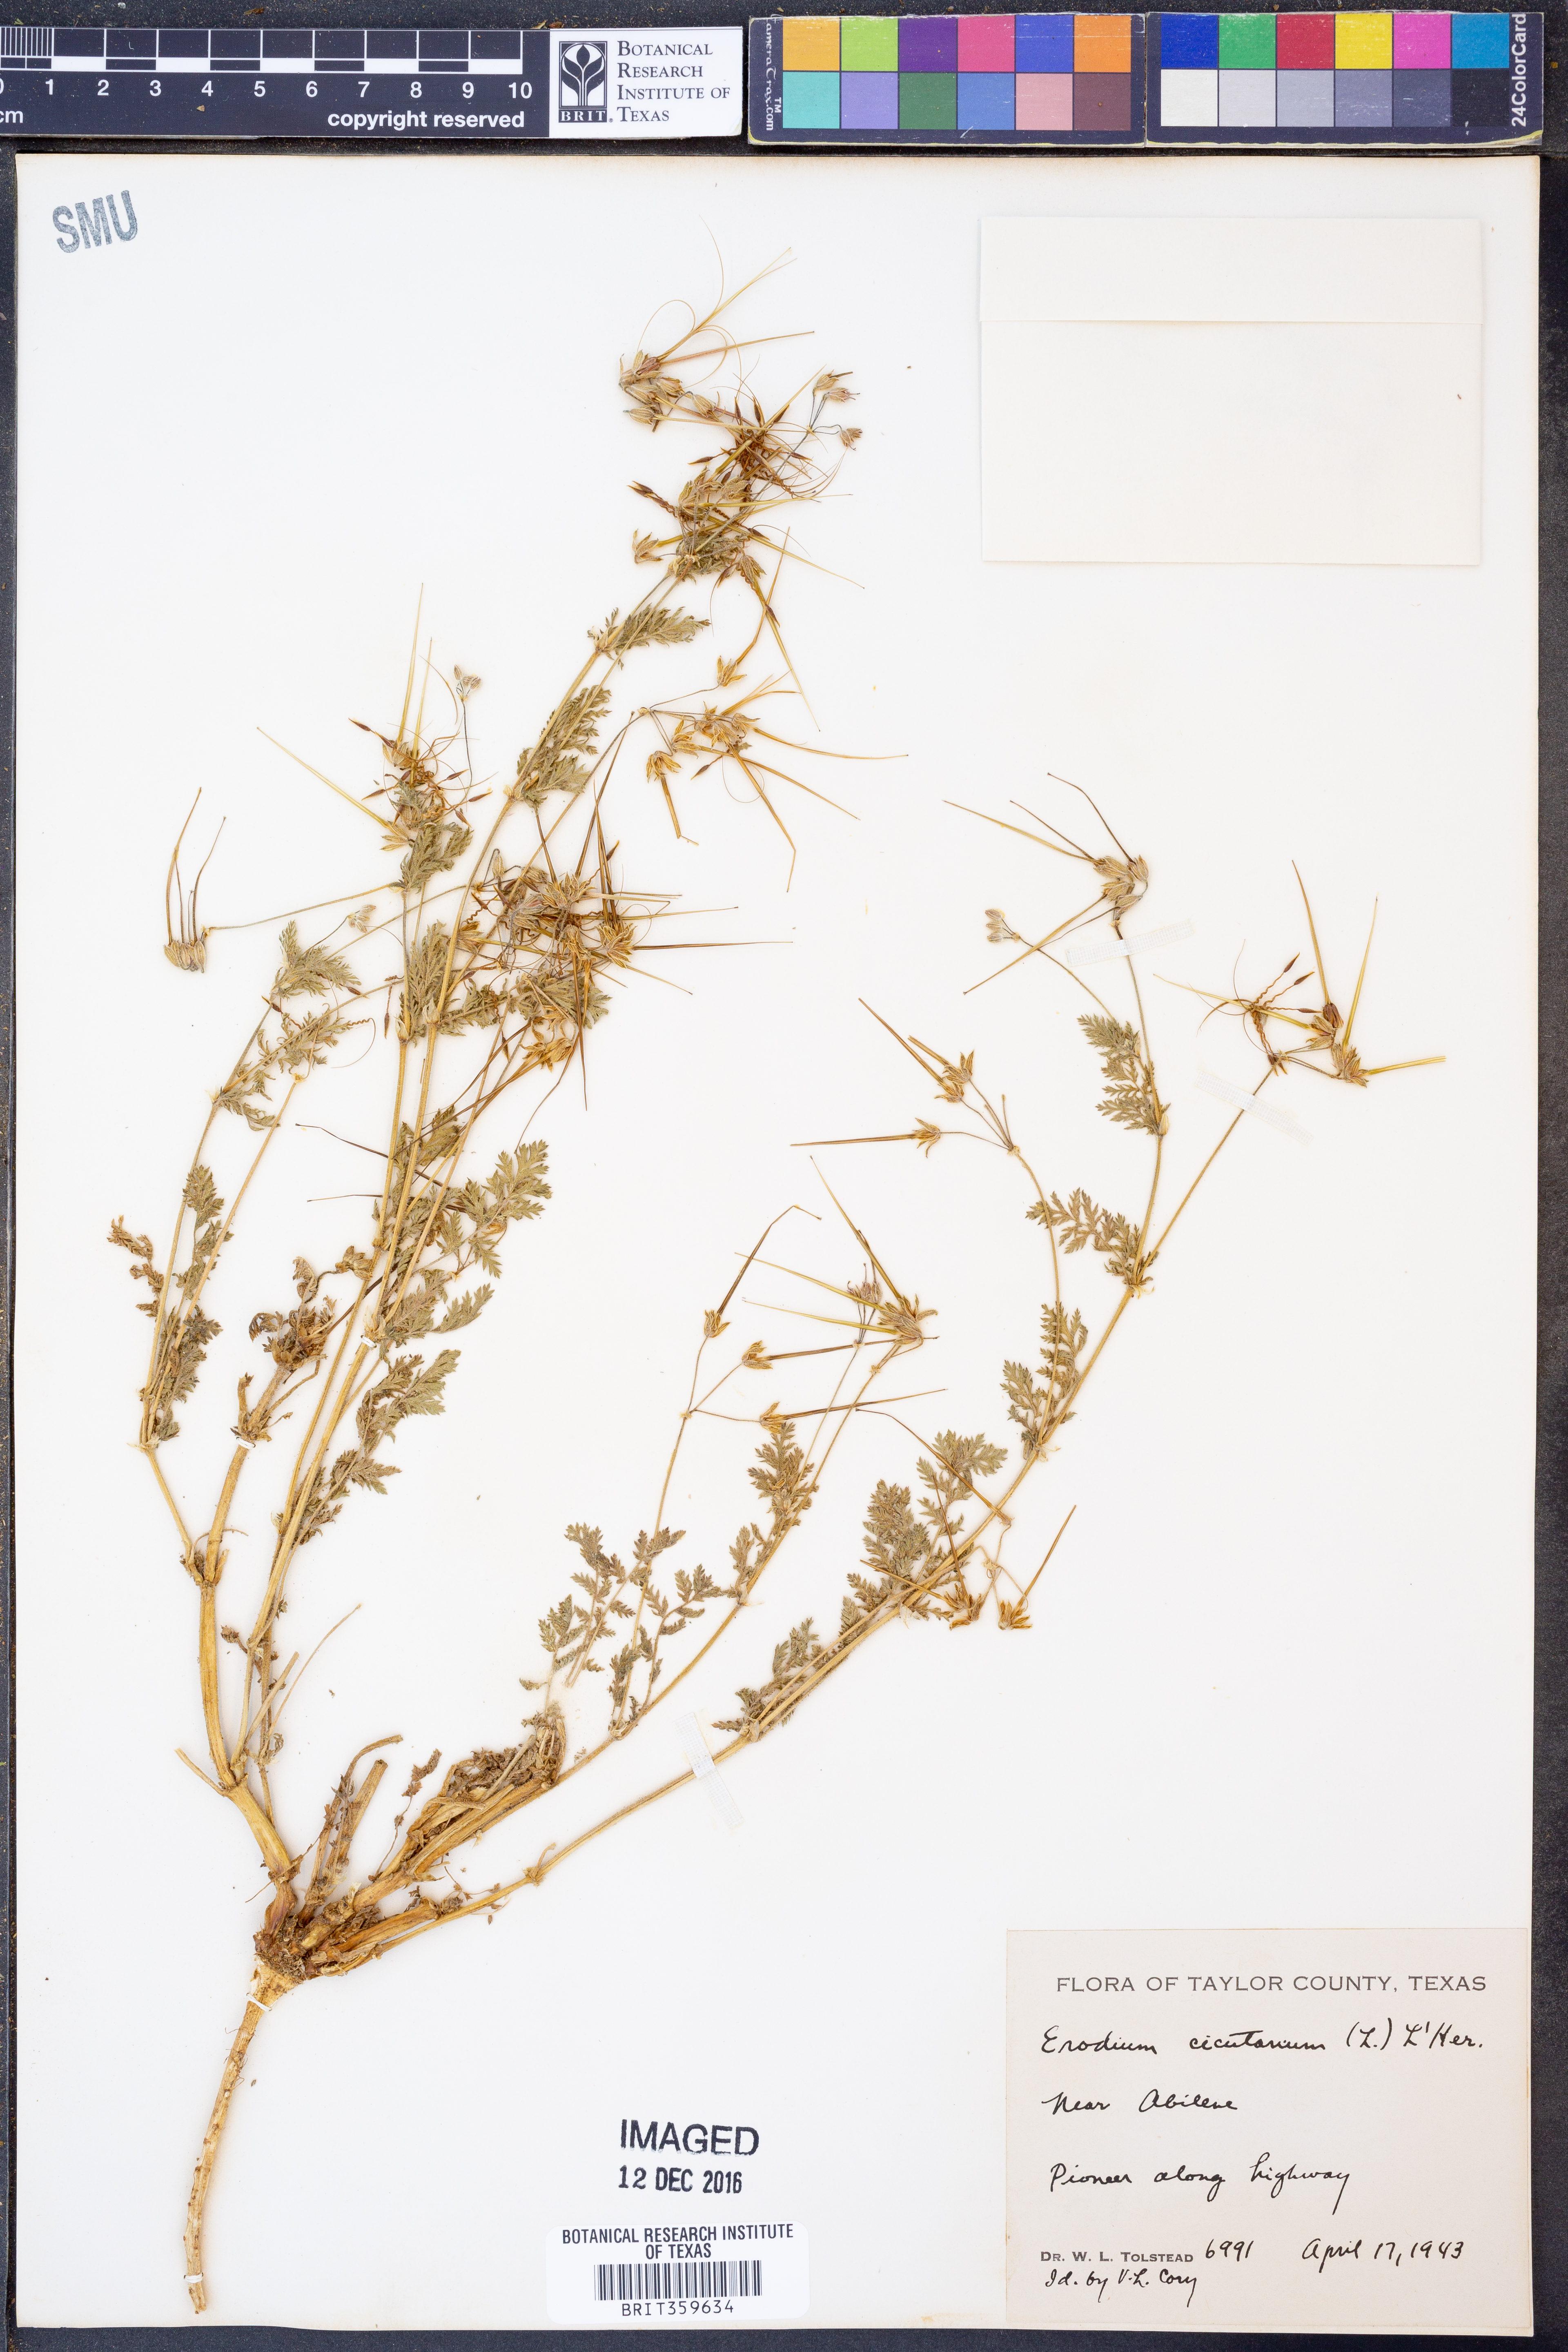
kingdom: Plantae
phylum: Tracheophyta
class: Magnoliopsida
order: Geraniales
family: Geraniaceae
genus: Erodium
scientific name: Erodium cicutarium
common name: Common stork's-bill
